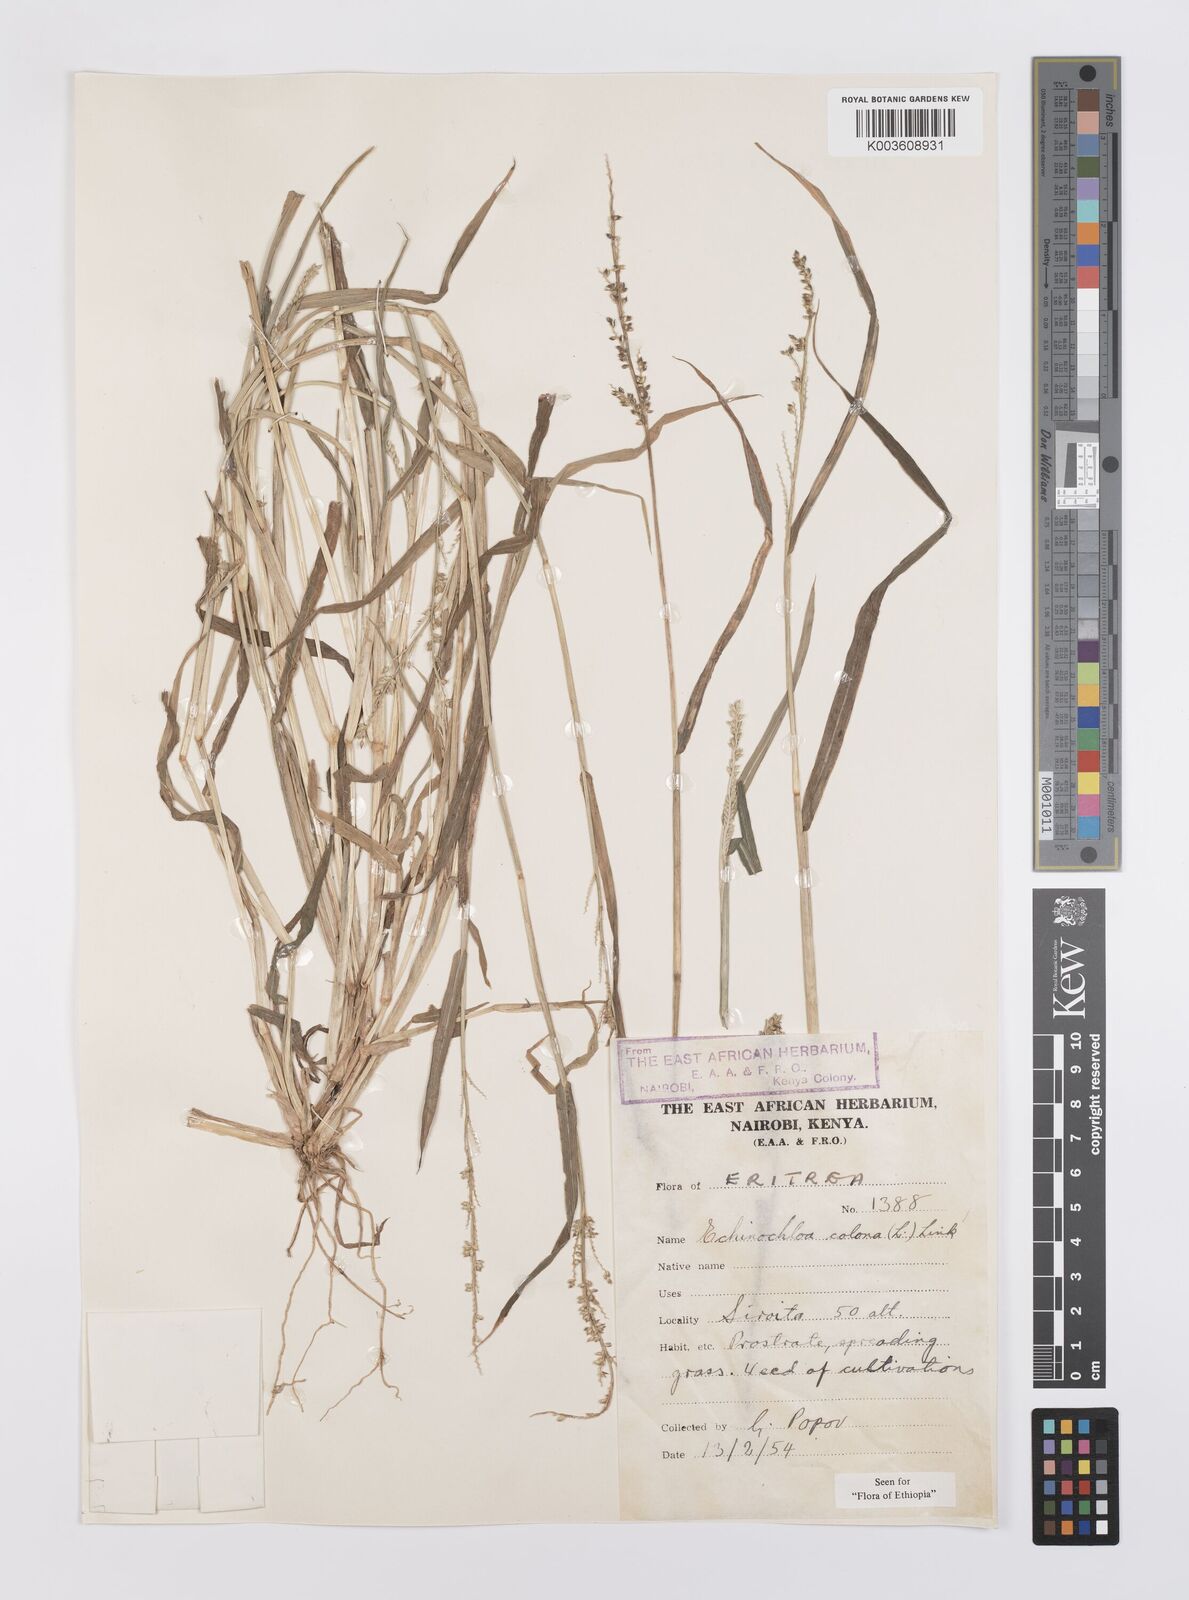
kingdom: Plantae
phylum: Tracheophyta
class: Liliopsida
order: Poales
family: Poaceae
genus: Echinochloa
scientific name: Echinochloa colonum
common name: Jungle rice
